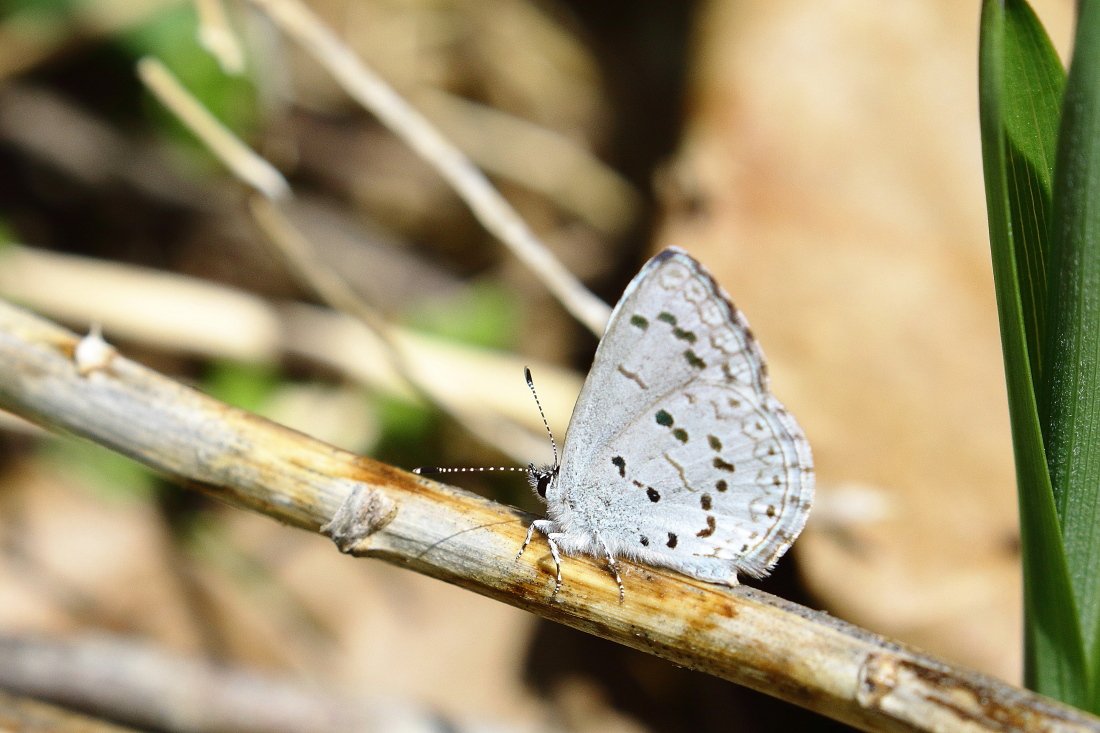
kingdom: Animalia
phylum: Arthropoda
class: Insecta
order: Lepidoptera
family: Lycaenidae
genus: Celastrina
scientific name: Celastrina
